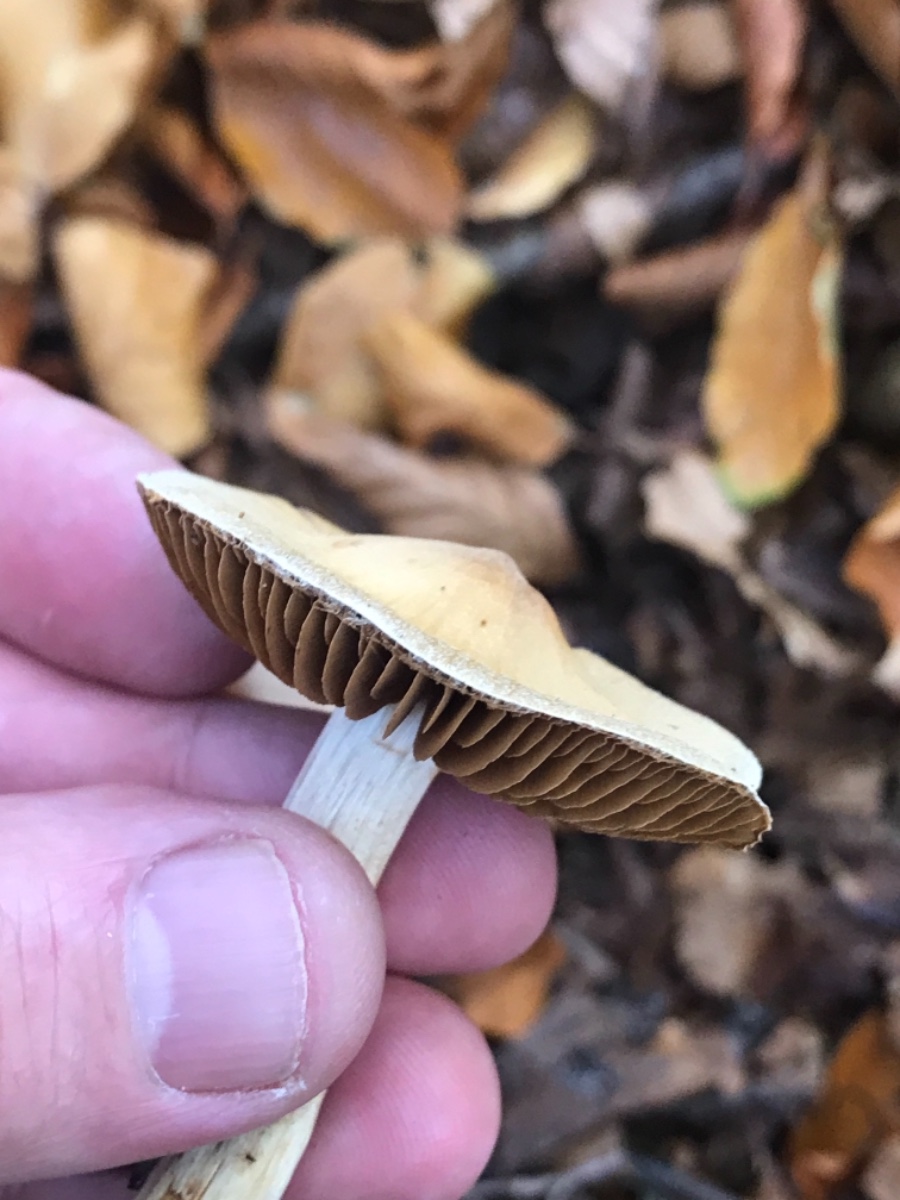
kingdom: Fungi
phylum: Basidiomycota
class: Agaricomycetes
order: Agaricales
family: Cortinariaceae
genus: Cortinarius
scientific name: Cortinarius
